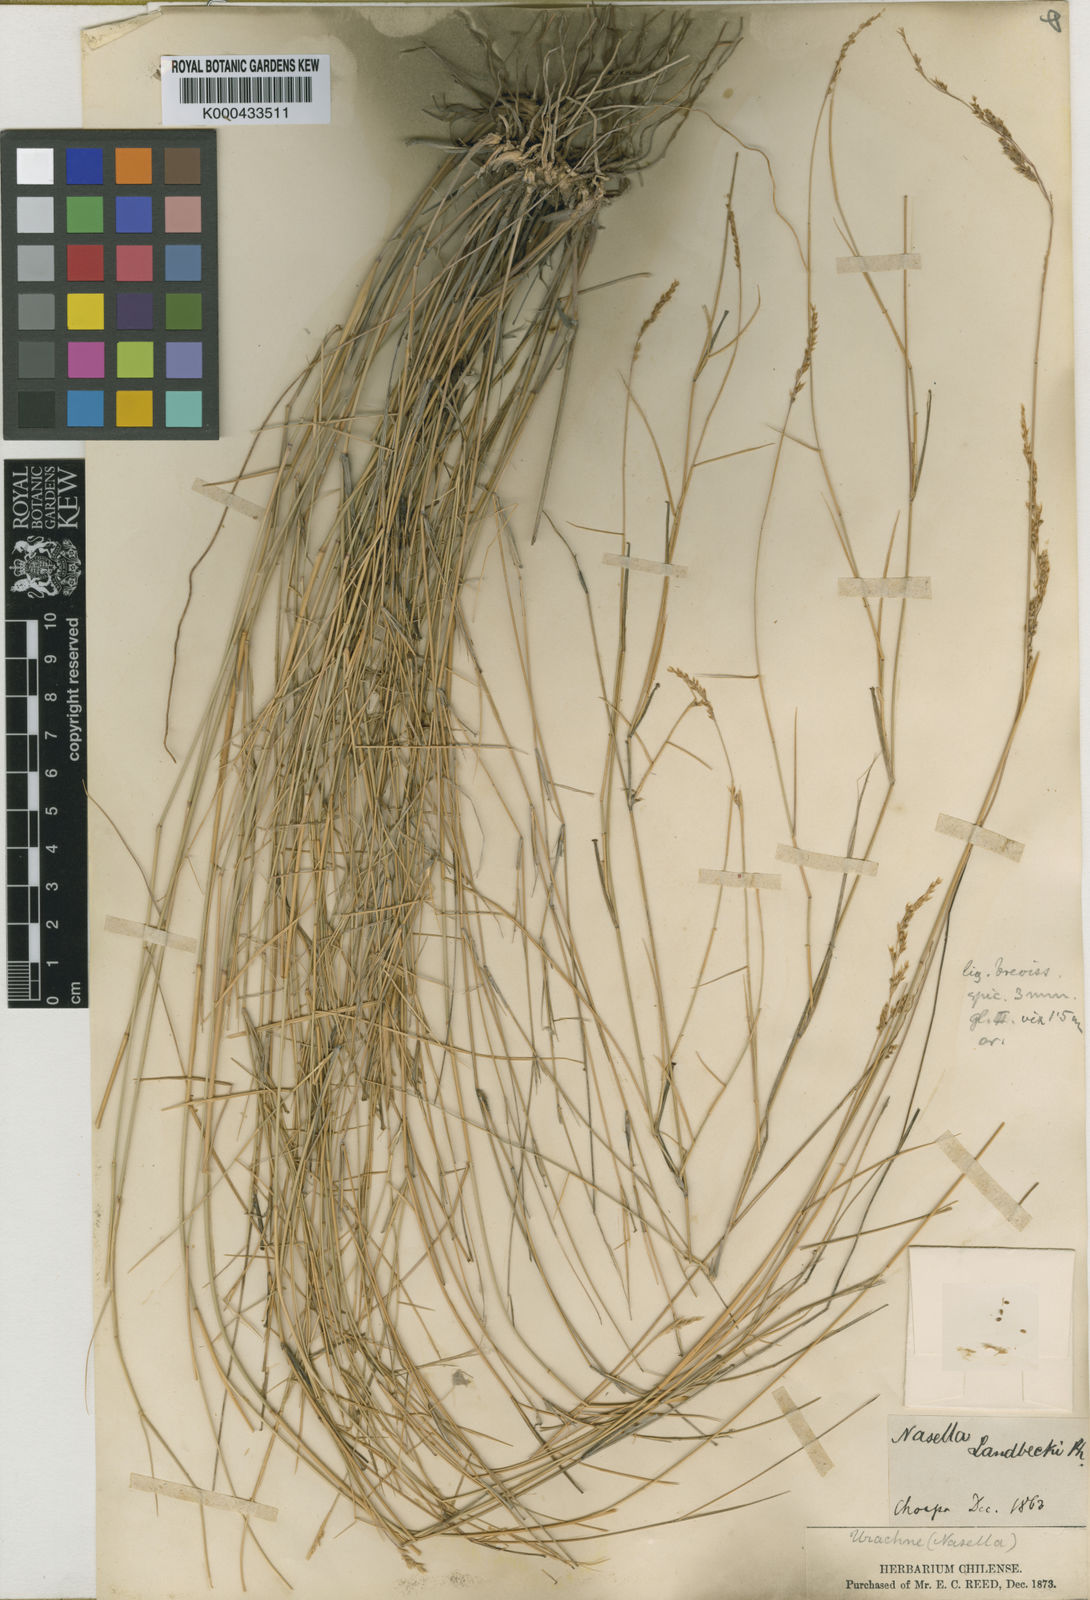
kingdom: Plantae
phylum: Tracheophyta
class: Liliopsida
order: Poales
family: Poaceae
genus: Nassella
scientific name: Nassella chilensis
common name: Chilean needlegrass
